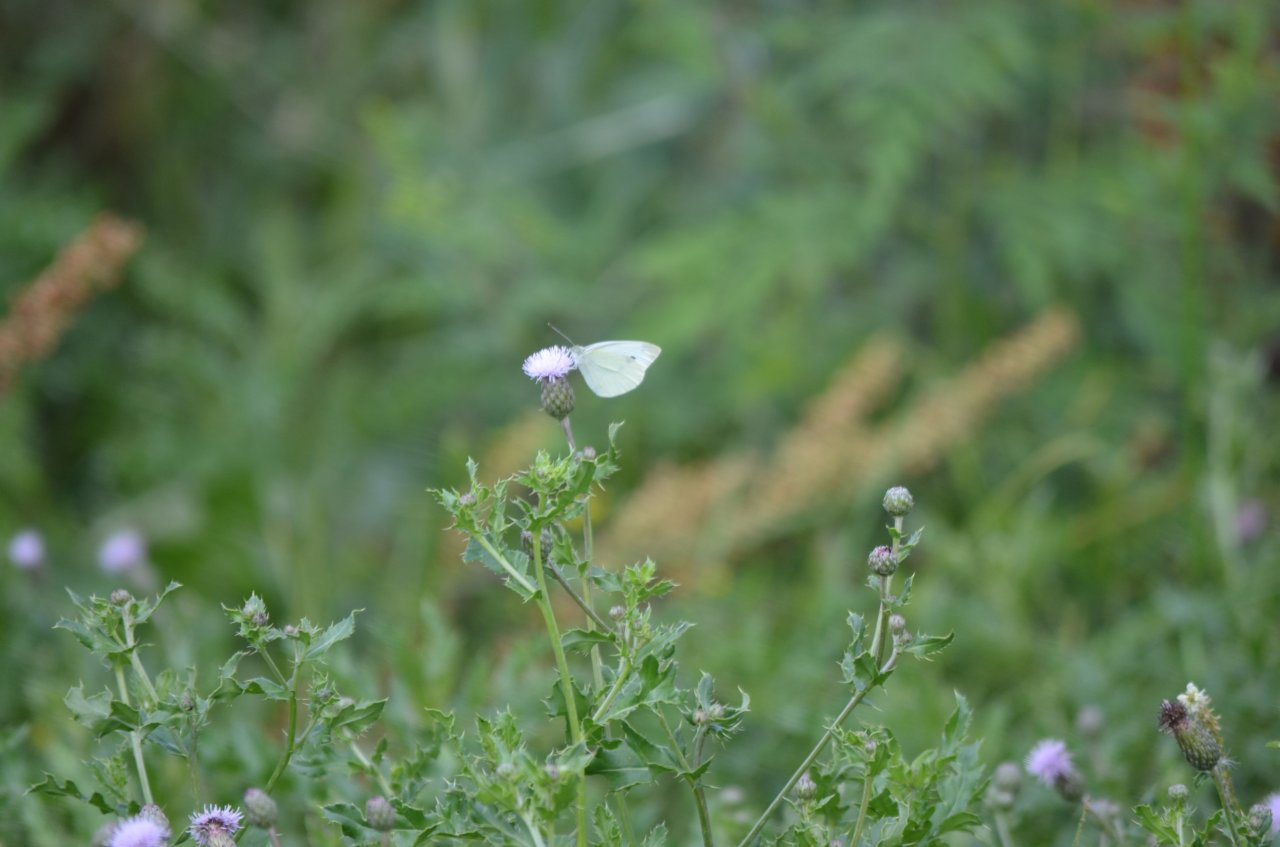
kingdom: Animalia
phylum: Arthropoda
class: Insecta
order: Lepidoptera
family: Pieridae
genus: Pieris
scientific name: Pieris rapae
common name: Cabbage White
